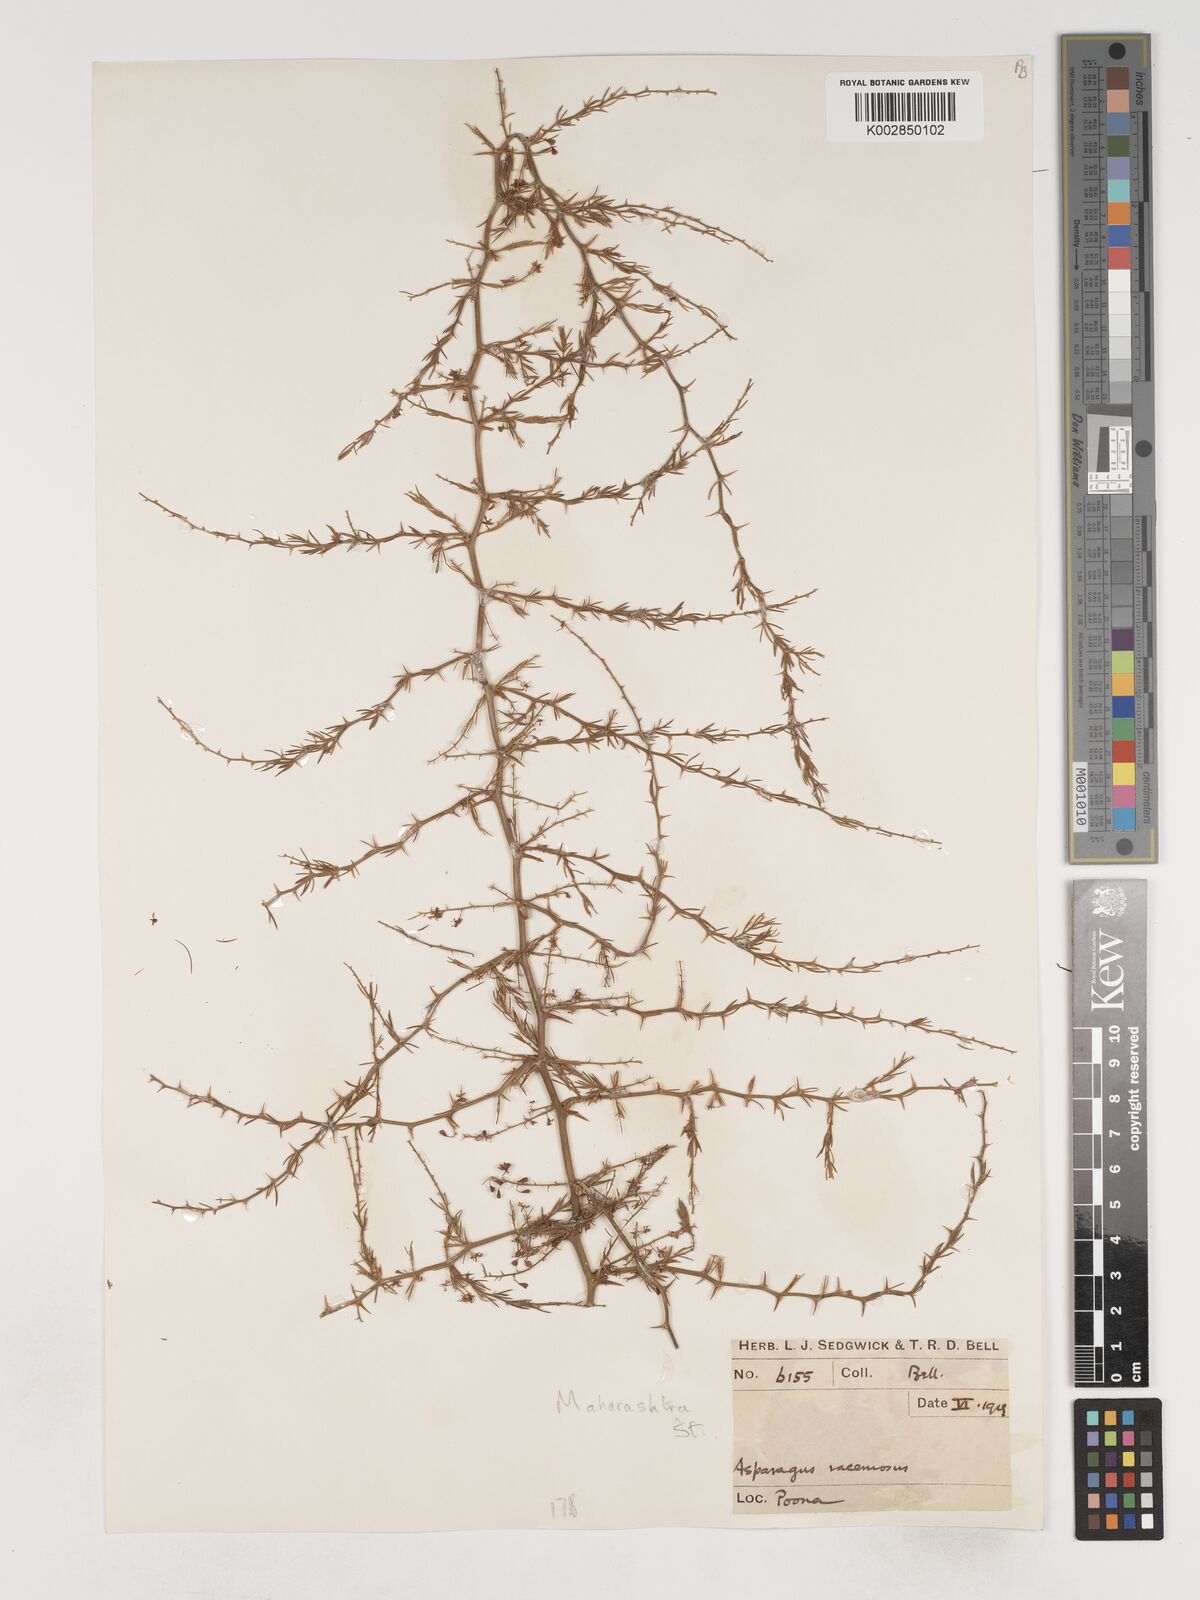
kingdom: Plantae
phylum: Tracheophyta
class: Liliopsida
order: Asparagales
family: Asparagaceae
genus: Asparagus
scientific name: Asparagus racemosus
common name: Asparagus-fern
